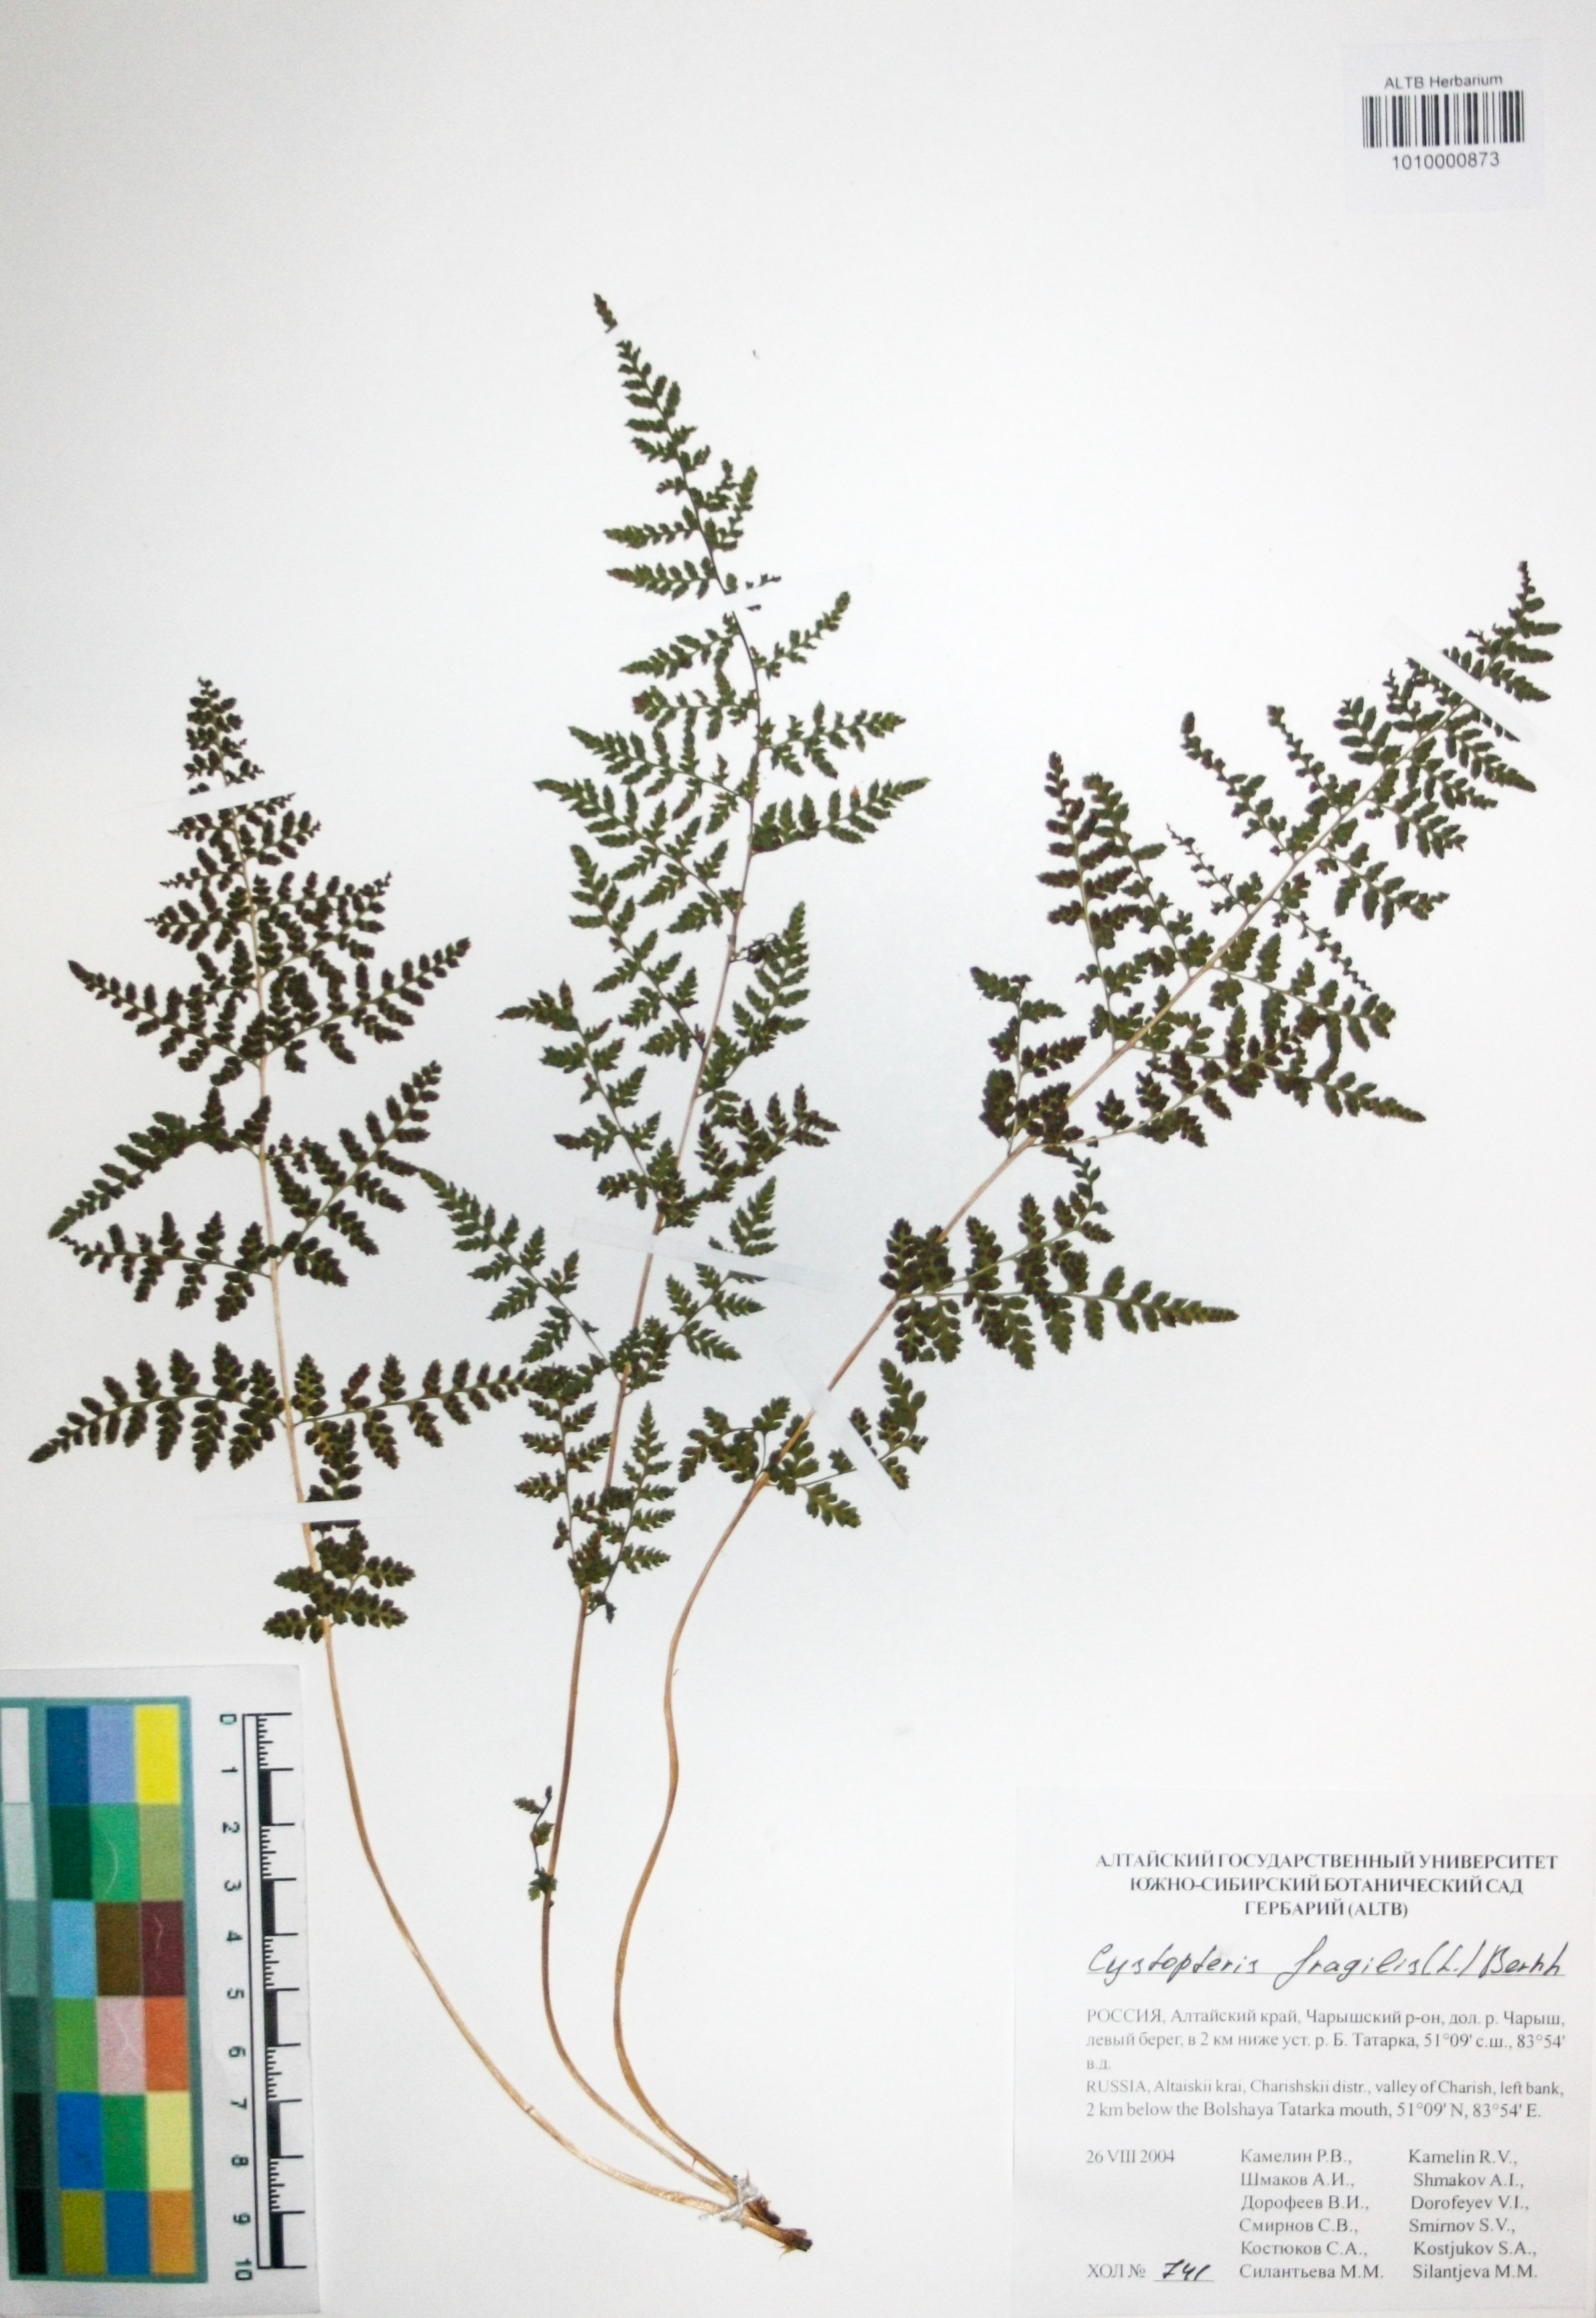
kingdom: Plantae
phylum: Tracheophyta
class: Polypodiopsida
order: Polypodiales
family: Cystopteridaceae
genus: Cystopteris
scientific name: Cystopteris fragilis
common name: Brittle bladder fern
